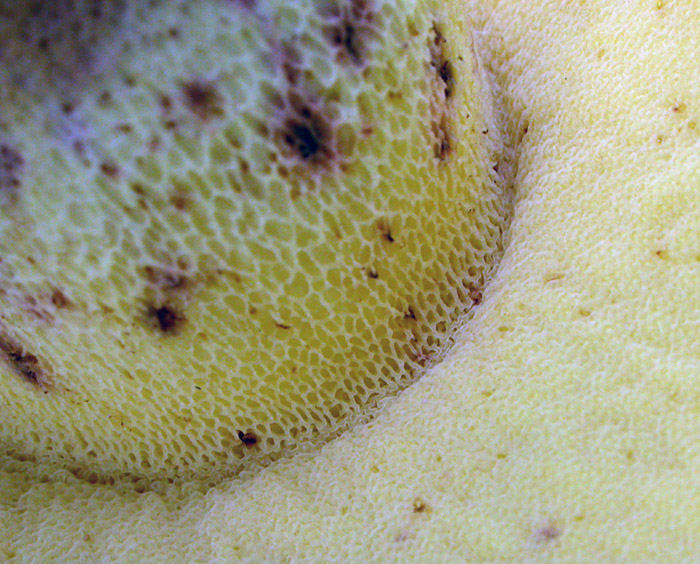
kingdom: Fungi
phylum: Basidiomycota
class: Agaricomycetes
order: Boletales
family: Boletaceae
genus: Caloboletus
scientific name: Caloboletus radicans
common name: rod-rørhat
